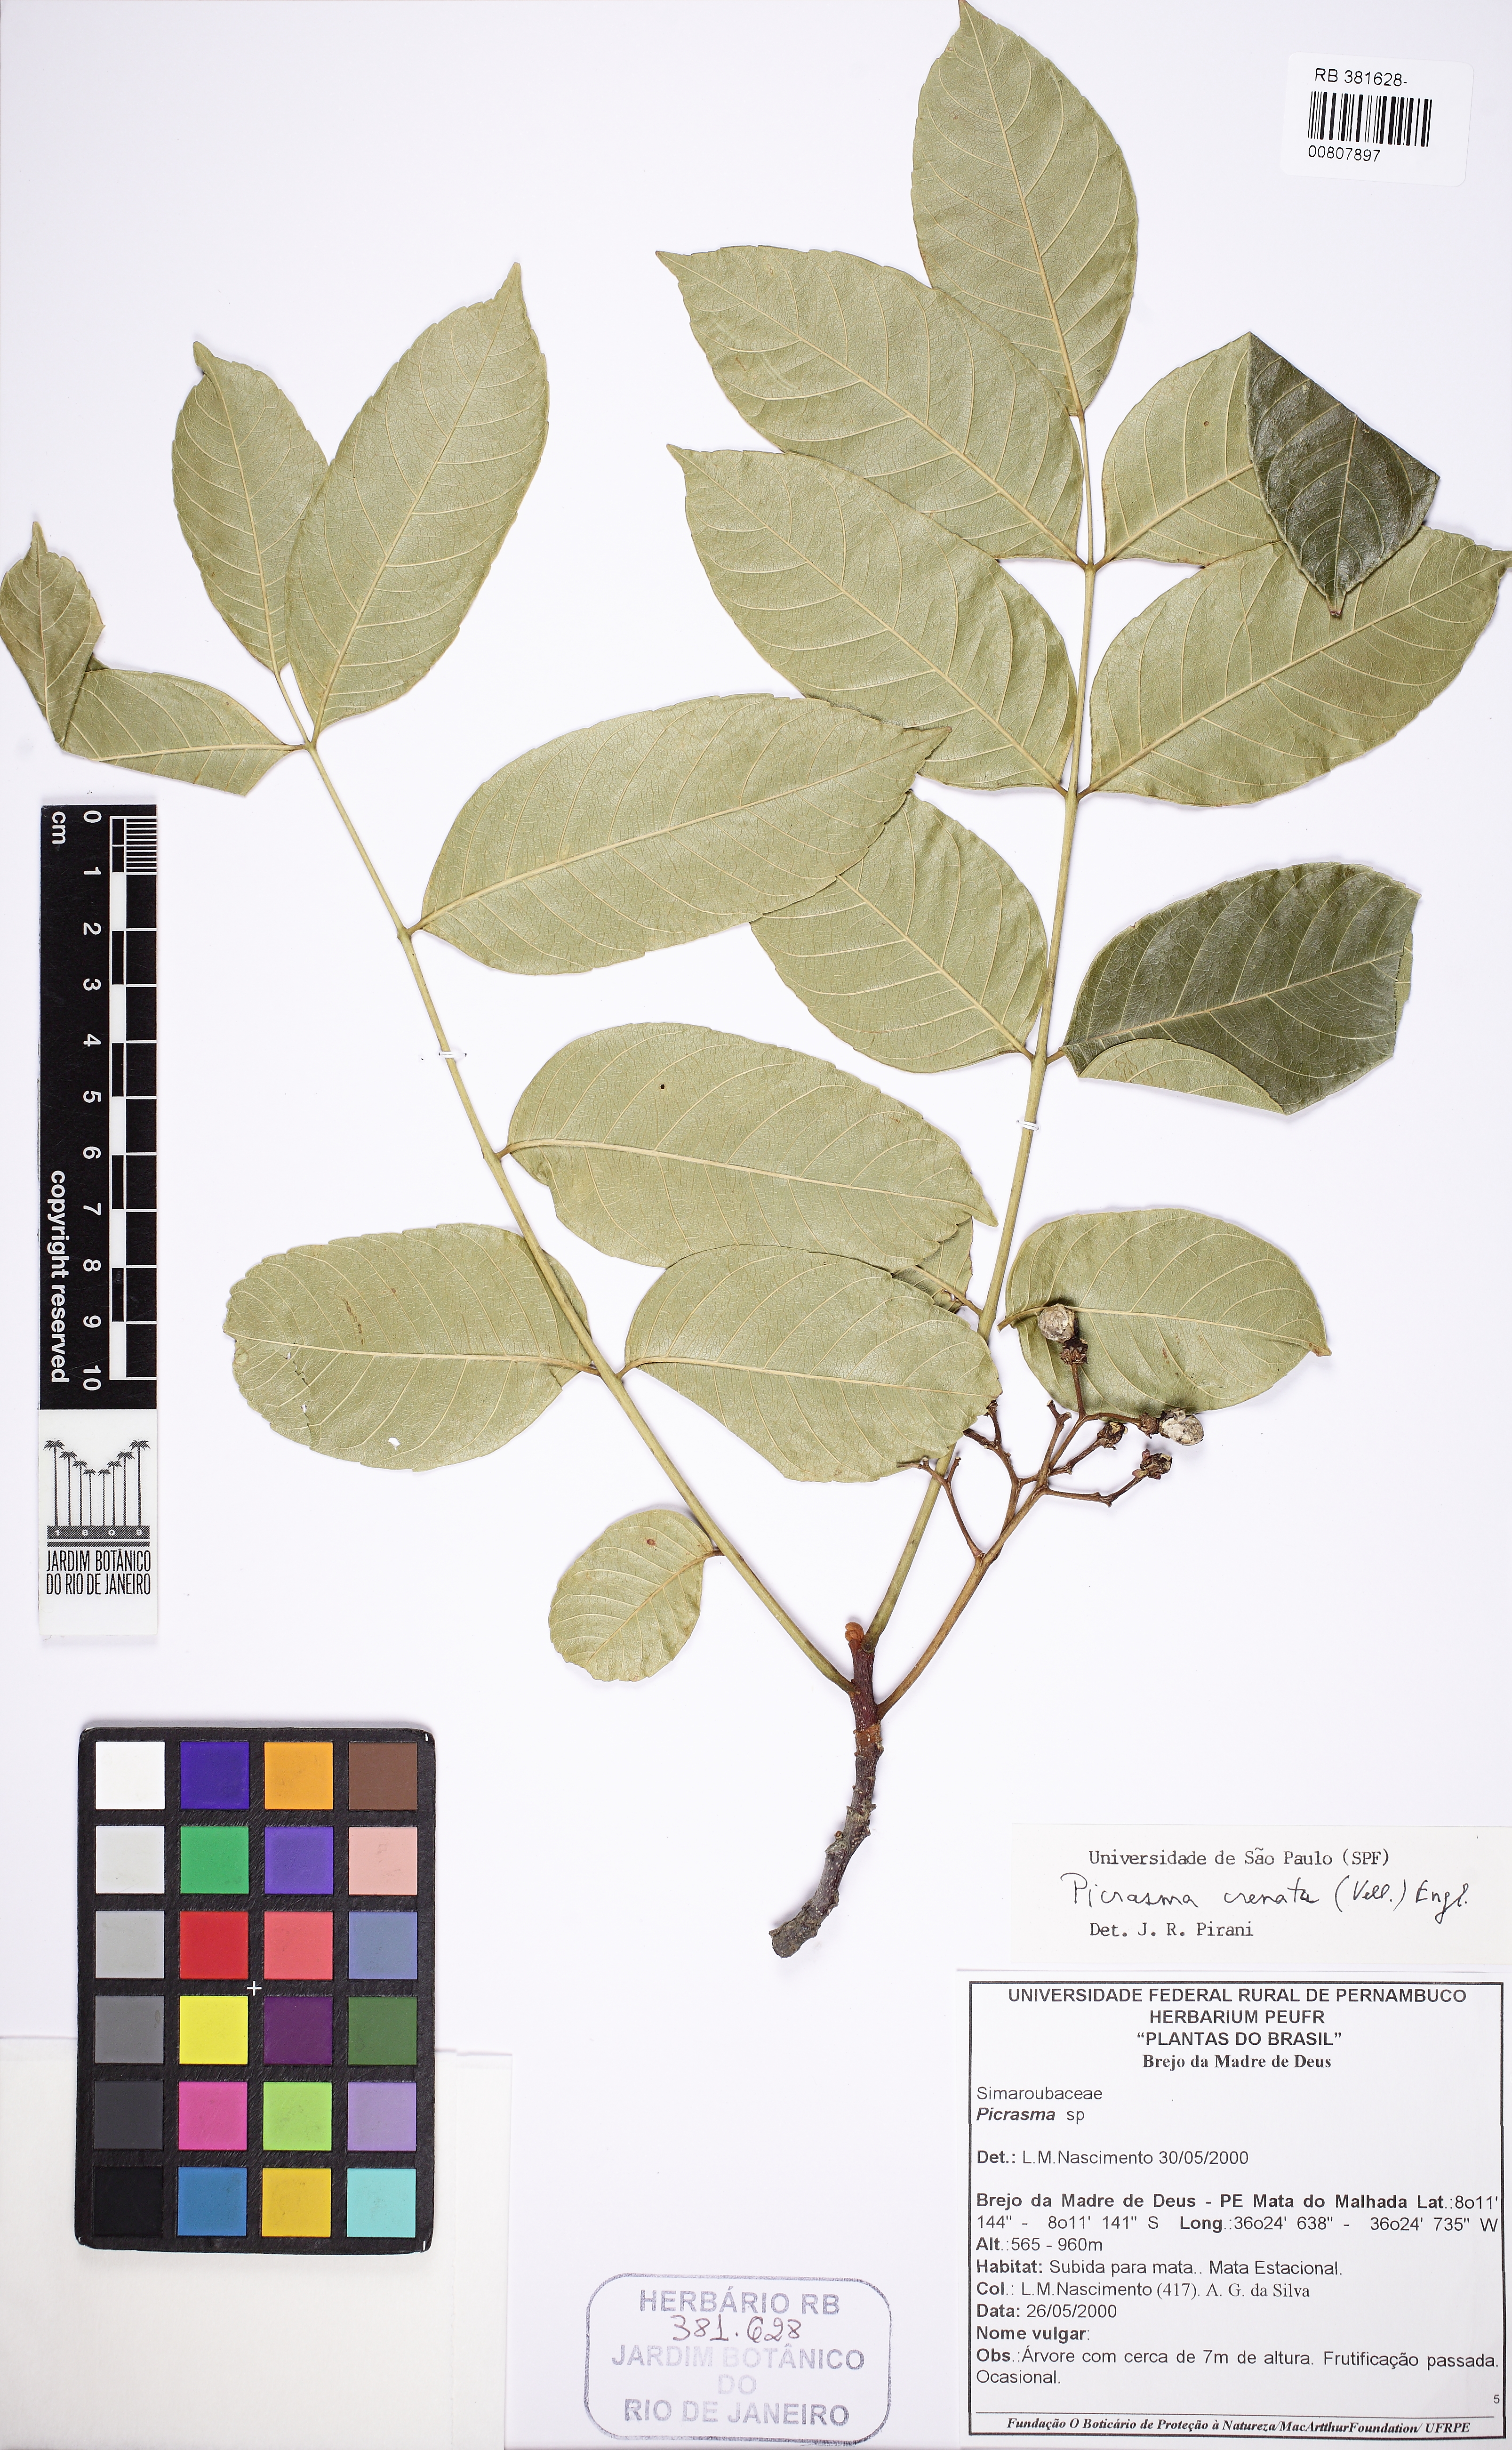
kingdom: Plantae
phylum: Tracheophyta
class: Magnoliopsida
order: Sapindales
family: Simaroubaceae
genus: Picrasma
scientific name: Picrasma crenata
